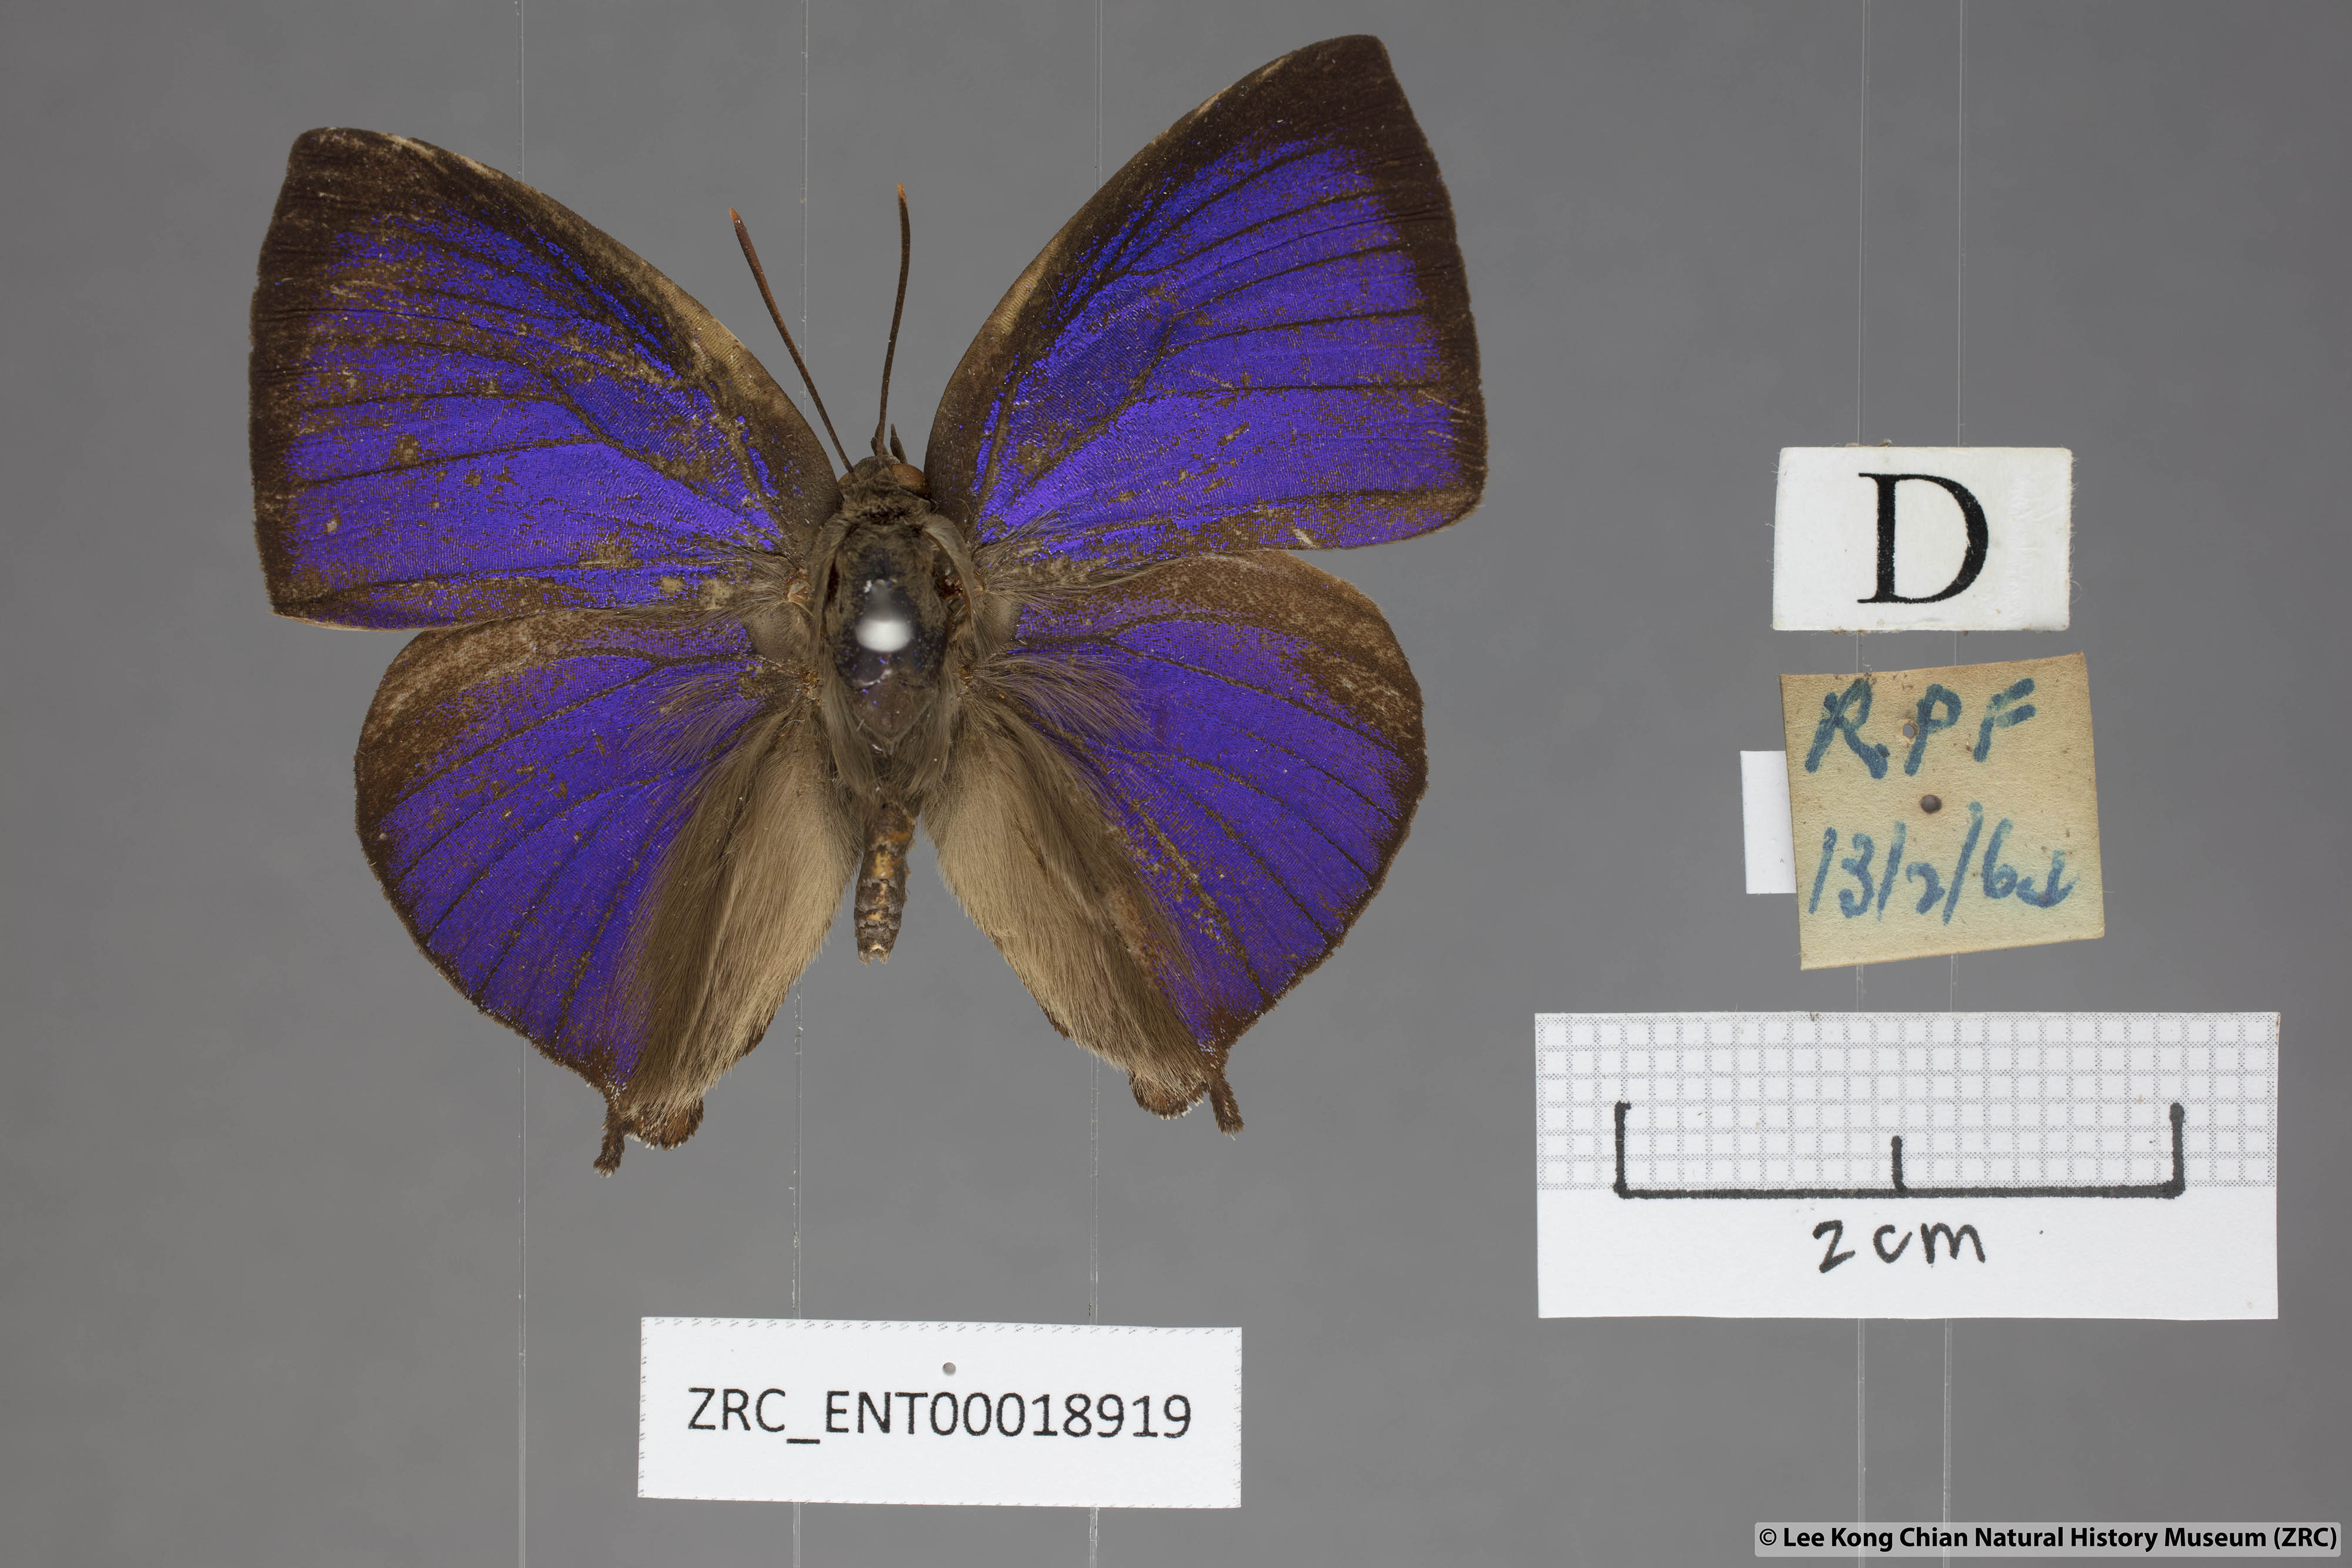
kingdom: Animalia
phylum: Arthropoda
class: Insecta
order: Lepidoptera
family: Lycaenidae
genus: Amblypodia
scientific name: Amblypodia narada
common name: Blue leaf blue
